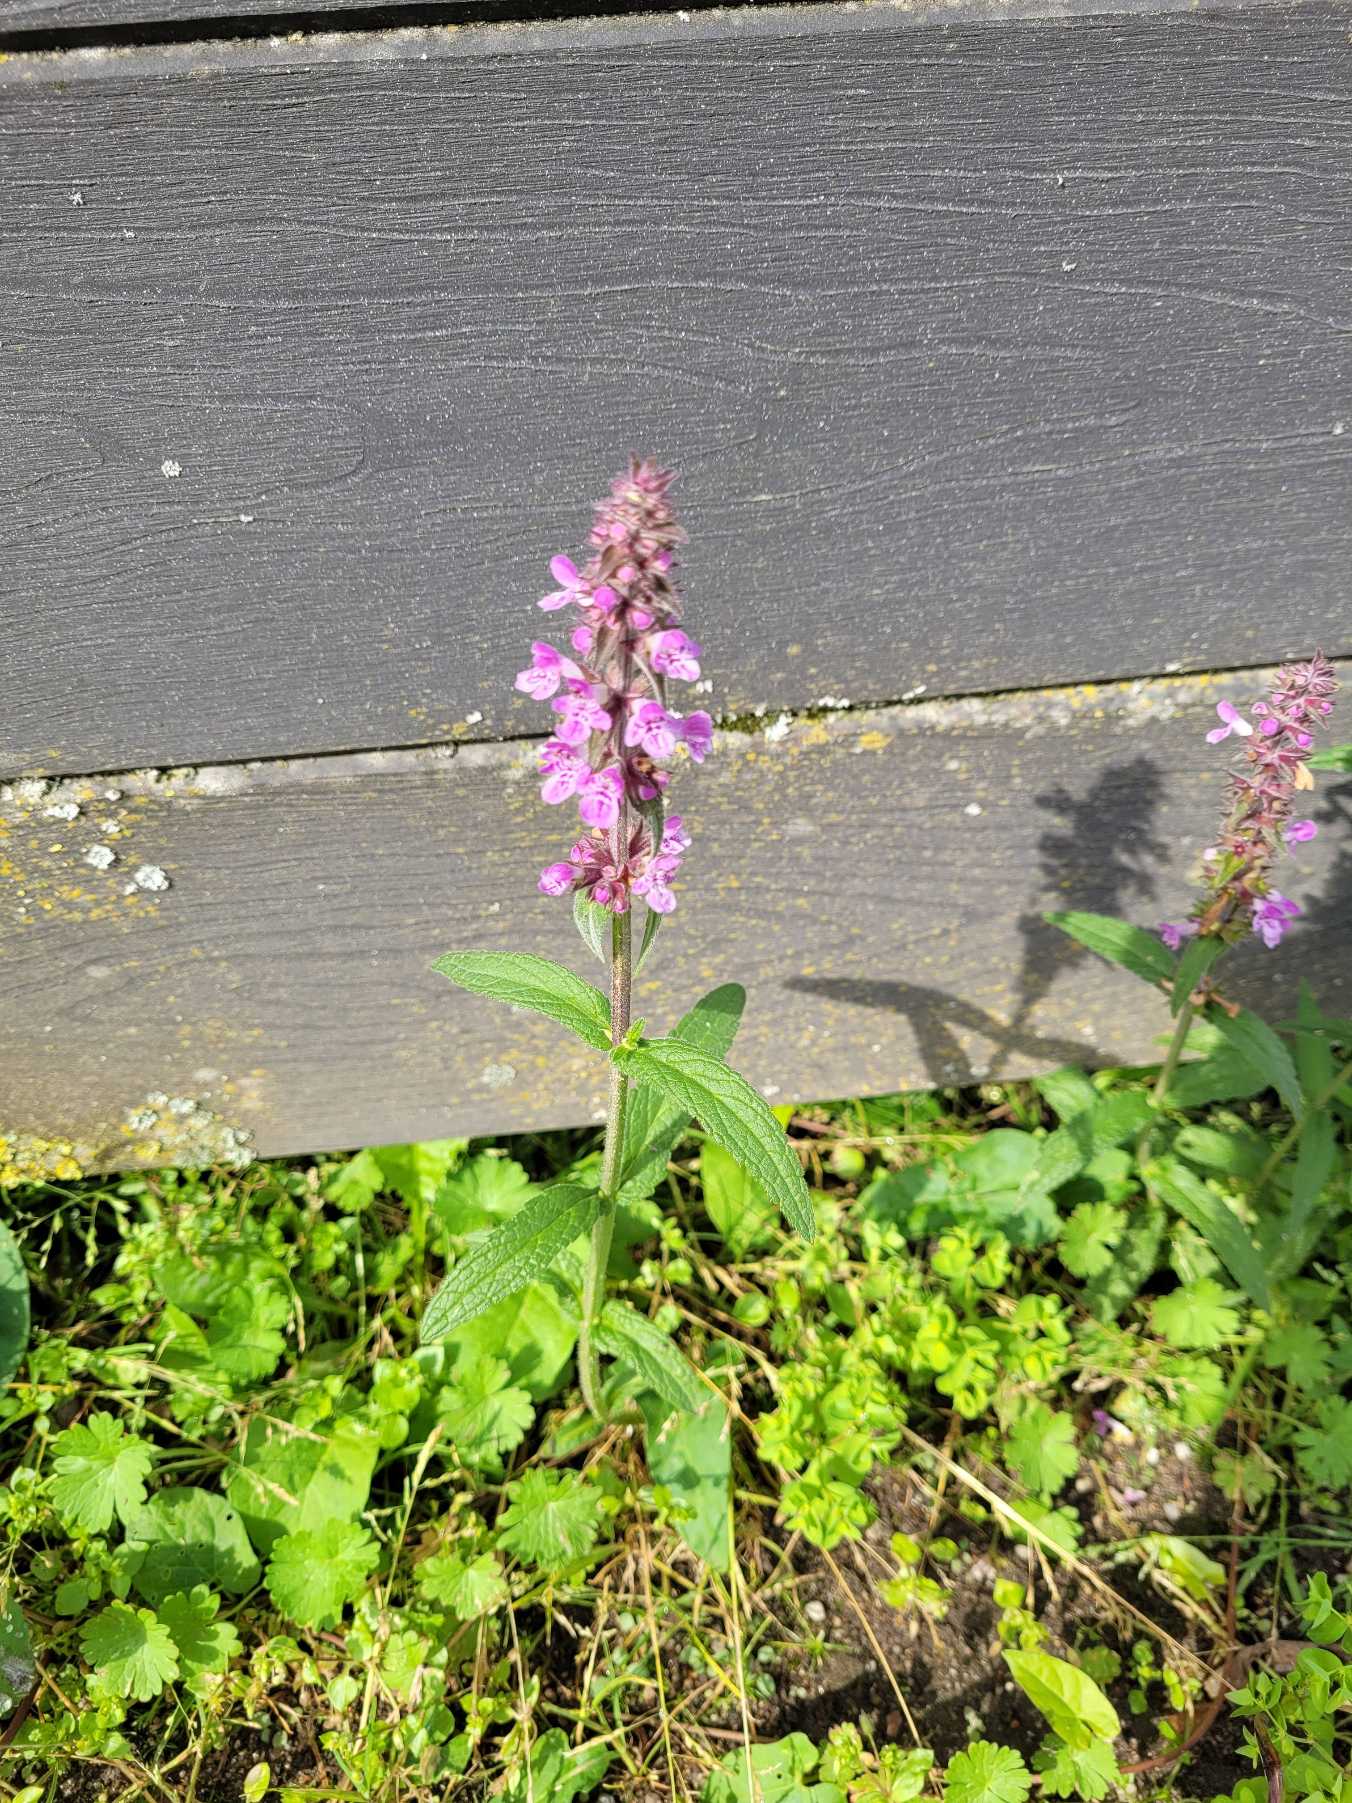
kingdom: Plantae
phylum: Tracheophyta
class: Magnoliopsida
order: Lamiales
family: Lamiaceae
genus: Stachys
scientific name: Stachys palustris
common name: Kær-galtetand
